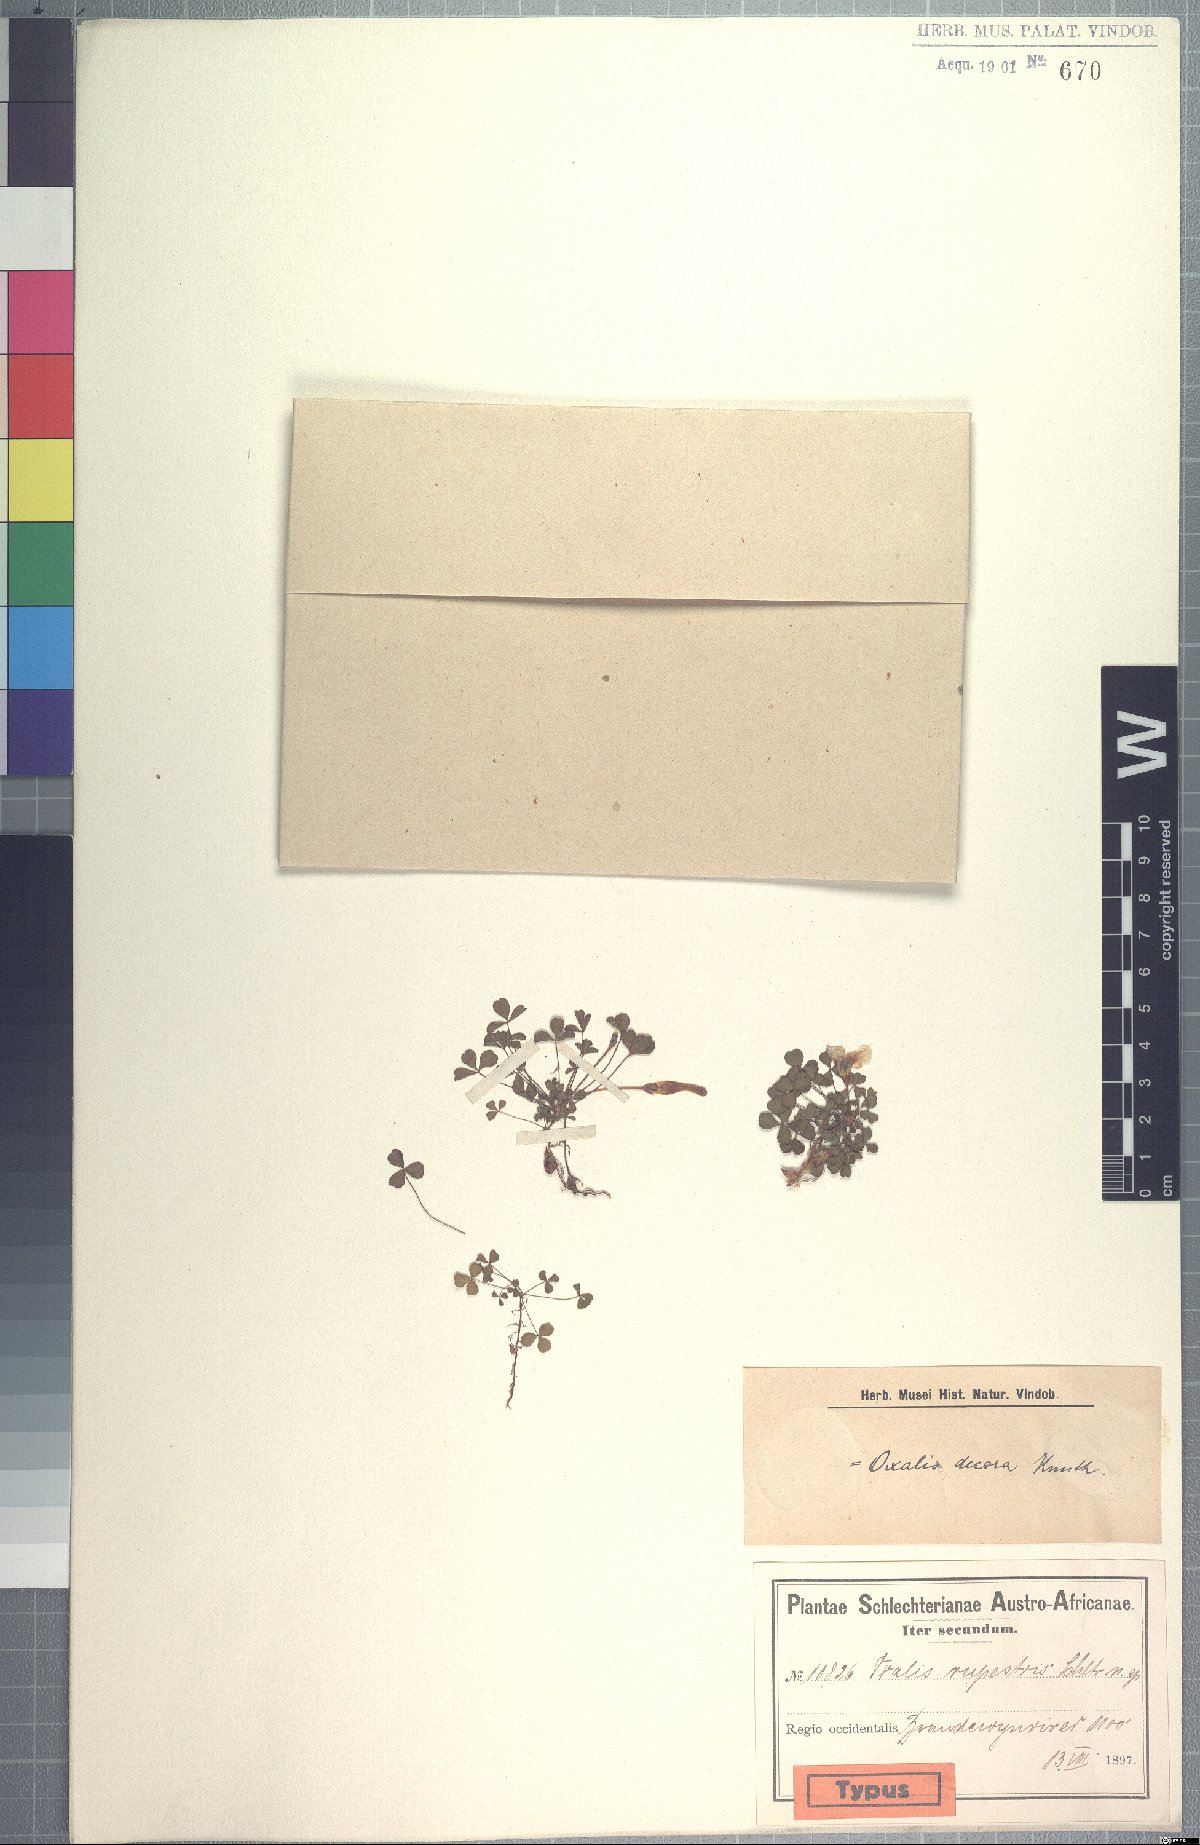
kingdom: Plantae
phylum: Tracheophyta
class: Magnoliopsida
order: Oxalidales
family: Oxalidaceae
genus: Oxalis
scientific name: Oxalis tenella
